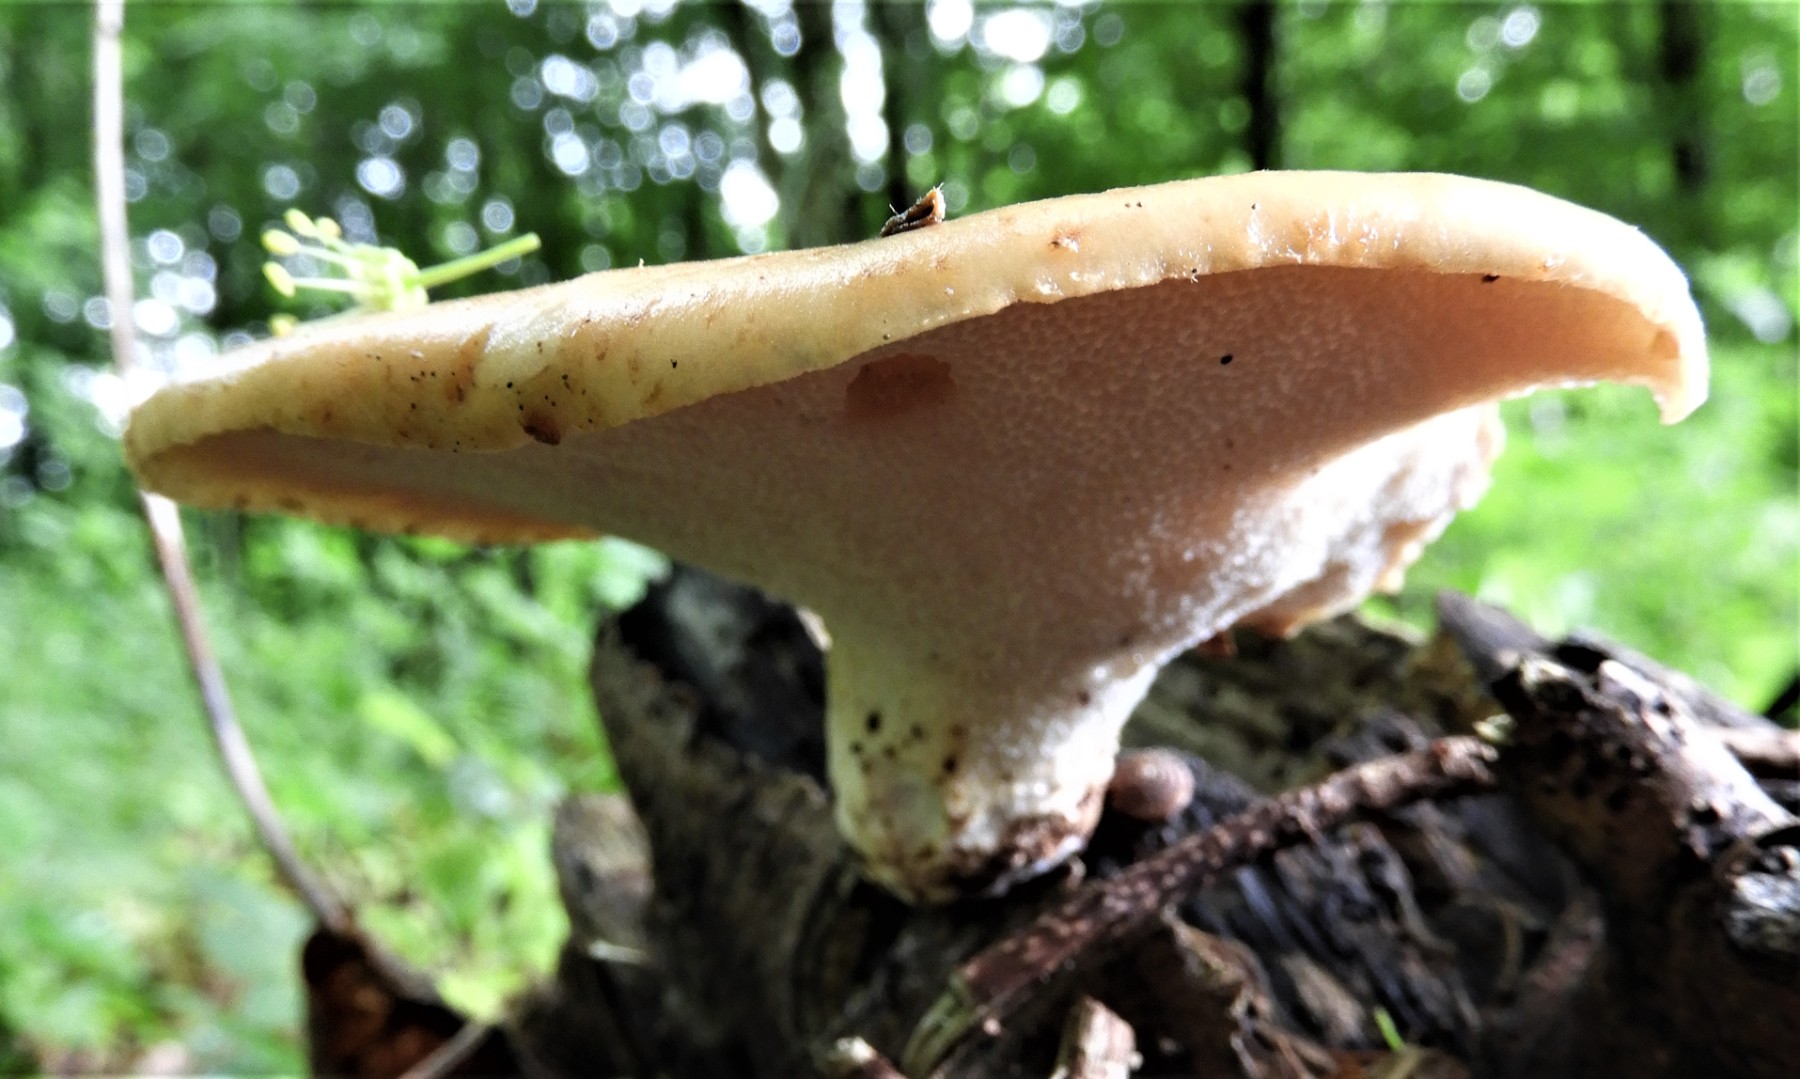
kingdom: Fungi
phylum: Basidiomycota
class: Agaricomycetes
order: Polyporales
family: Polyporaceae
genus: Cerioporus
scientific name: Cerioporus squamosus
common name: skællet stilkporesvamp
